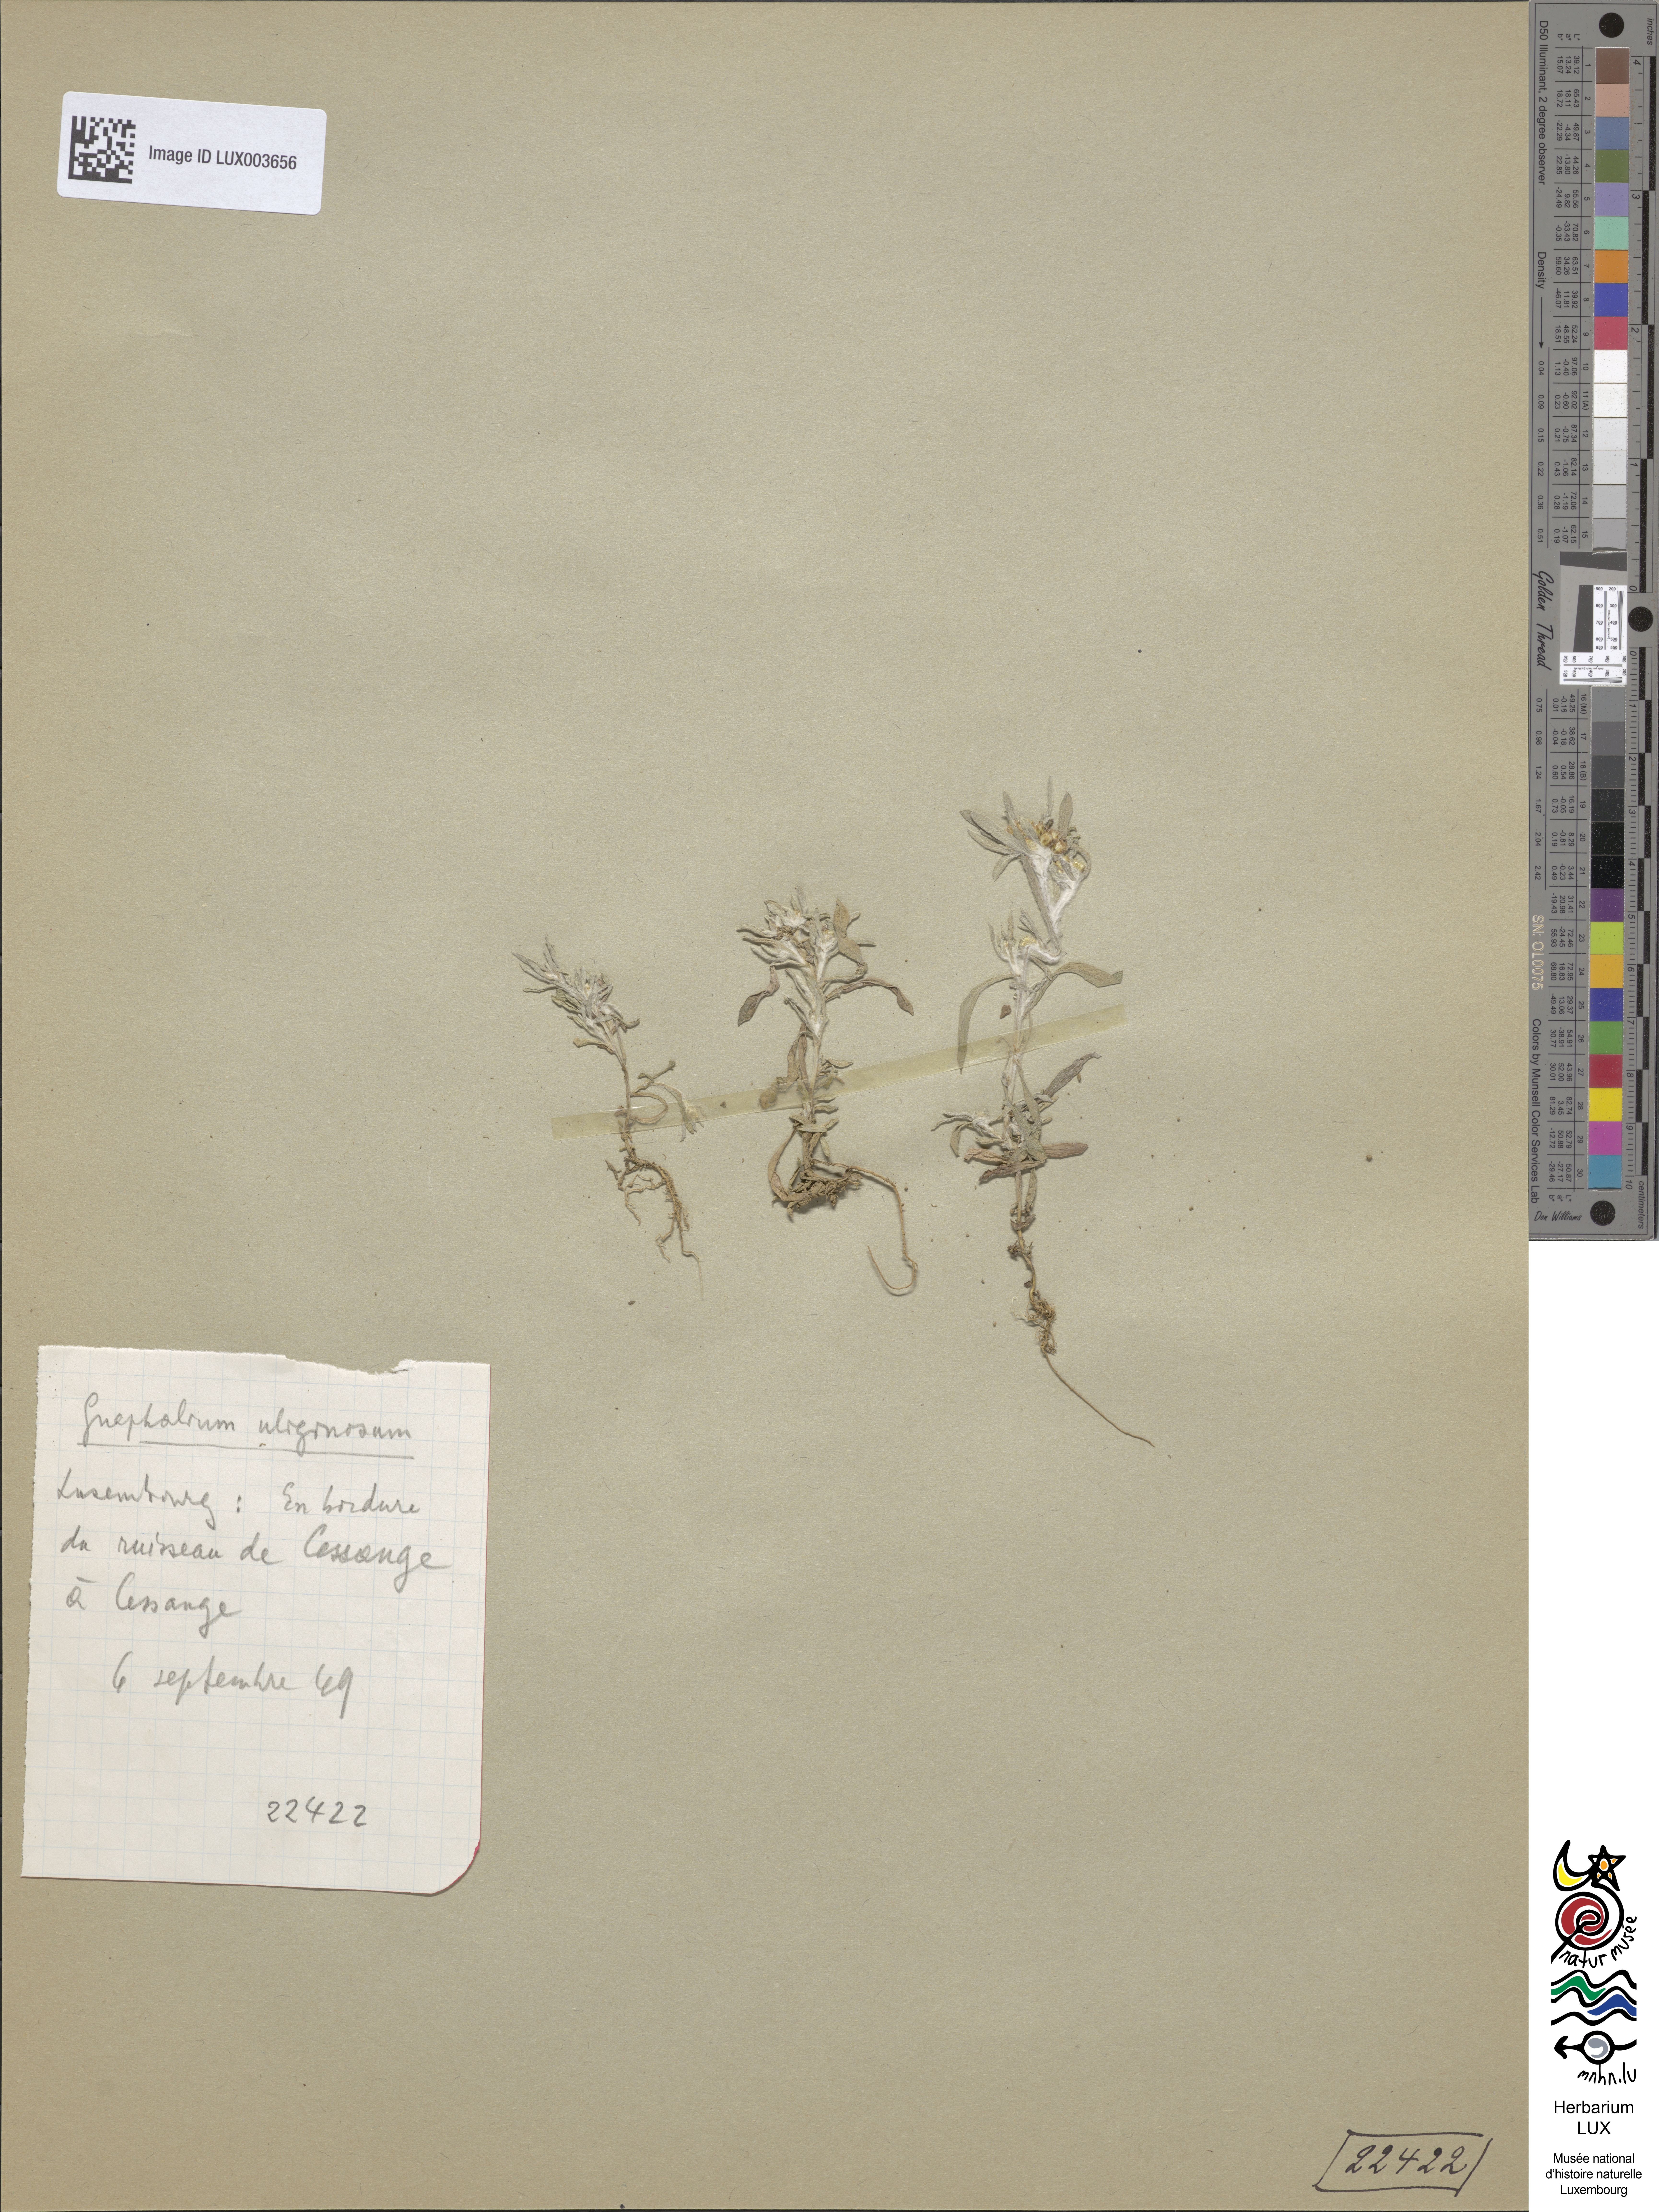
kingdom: Plantae
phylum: Tracheophyta
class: Magnoliopsida
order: Asterales
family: Asteraceae
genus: Gnaphalium
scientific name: Gnaphalium uliginosum
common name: Marsh cudweed
